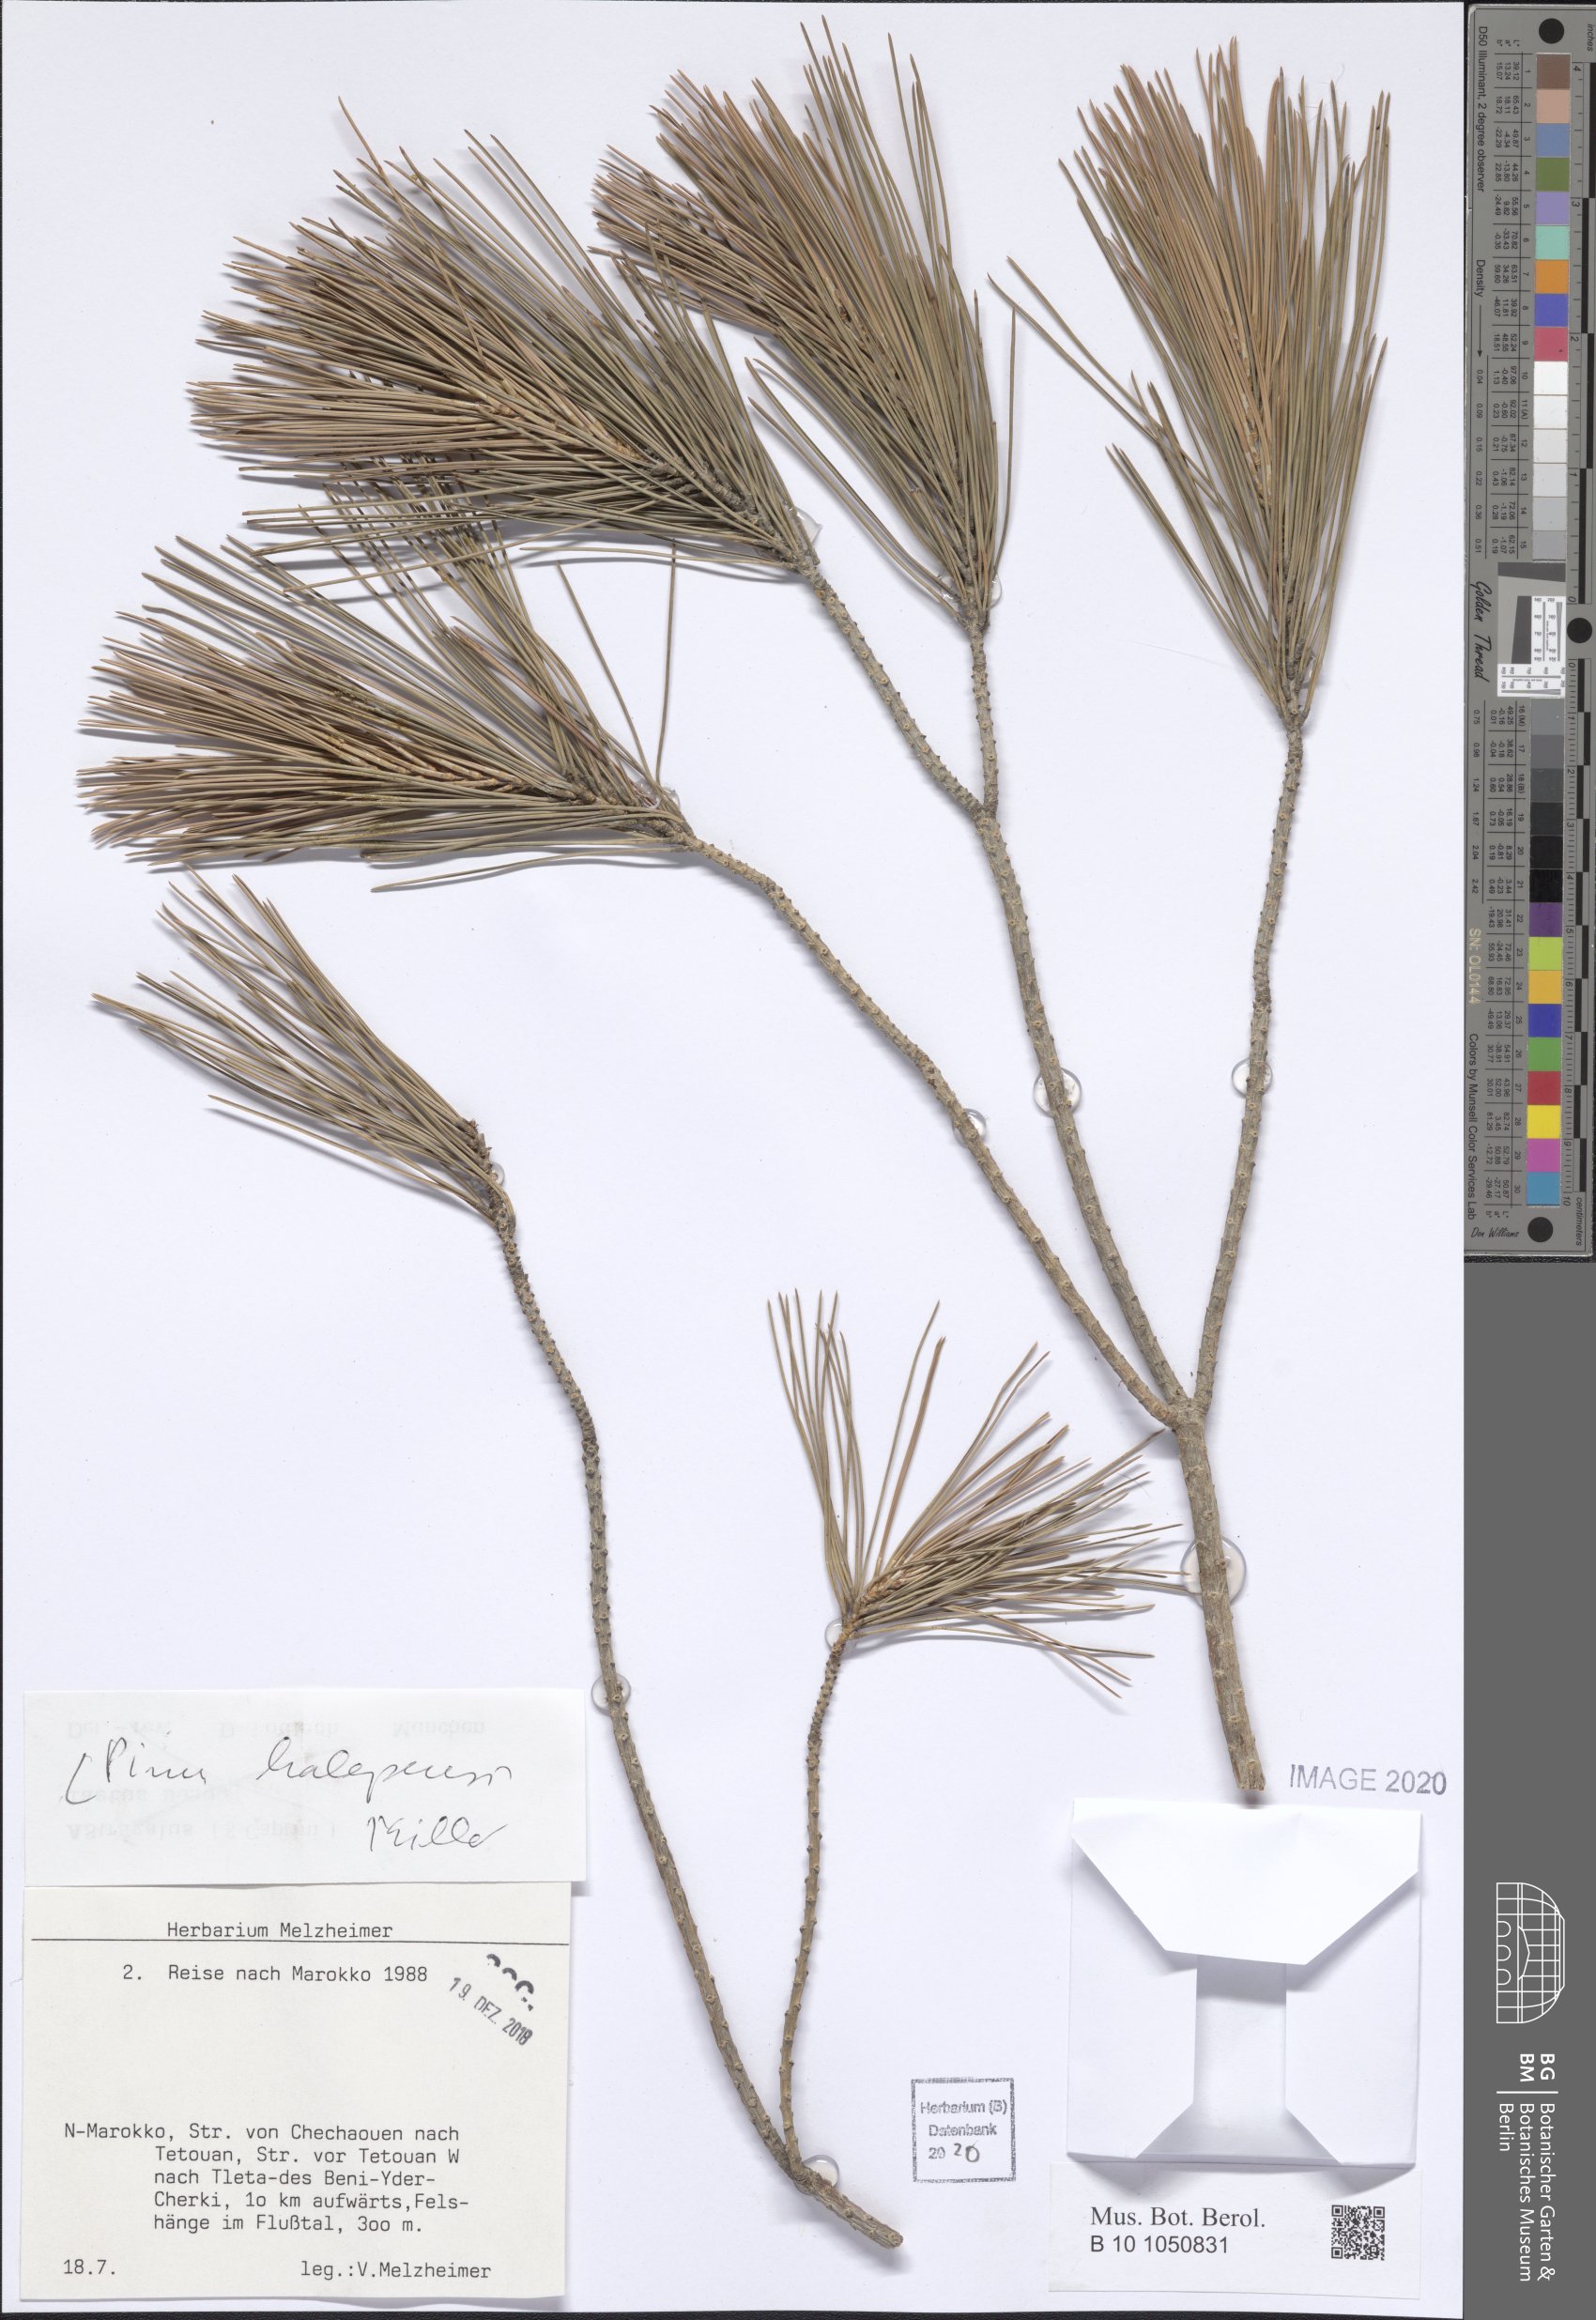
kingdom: Plantae
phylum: Tracheophyta
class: Pinopsida
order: Pinales
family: Pinaceae
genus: Pinus
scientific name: Pinus halepensis
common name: Aleppo pine
